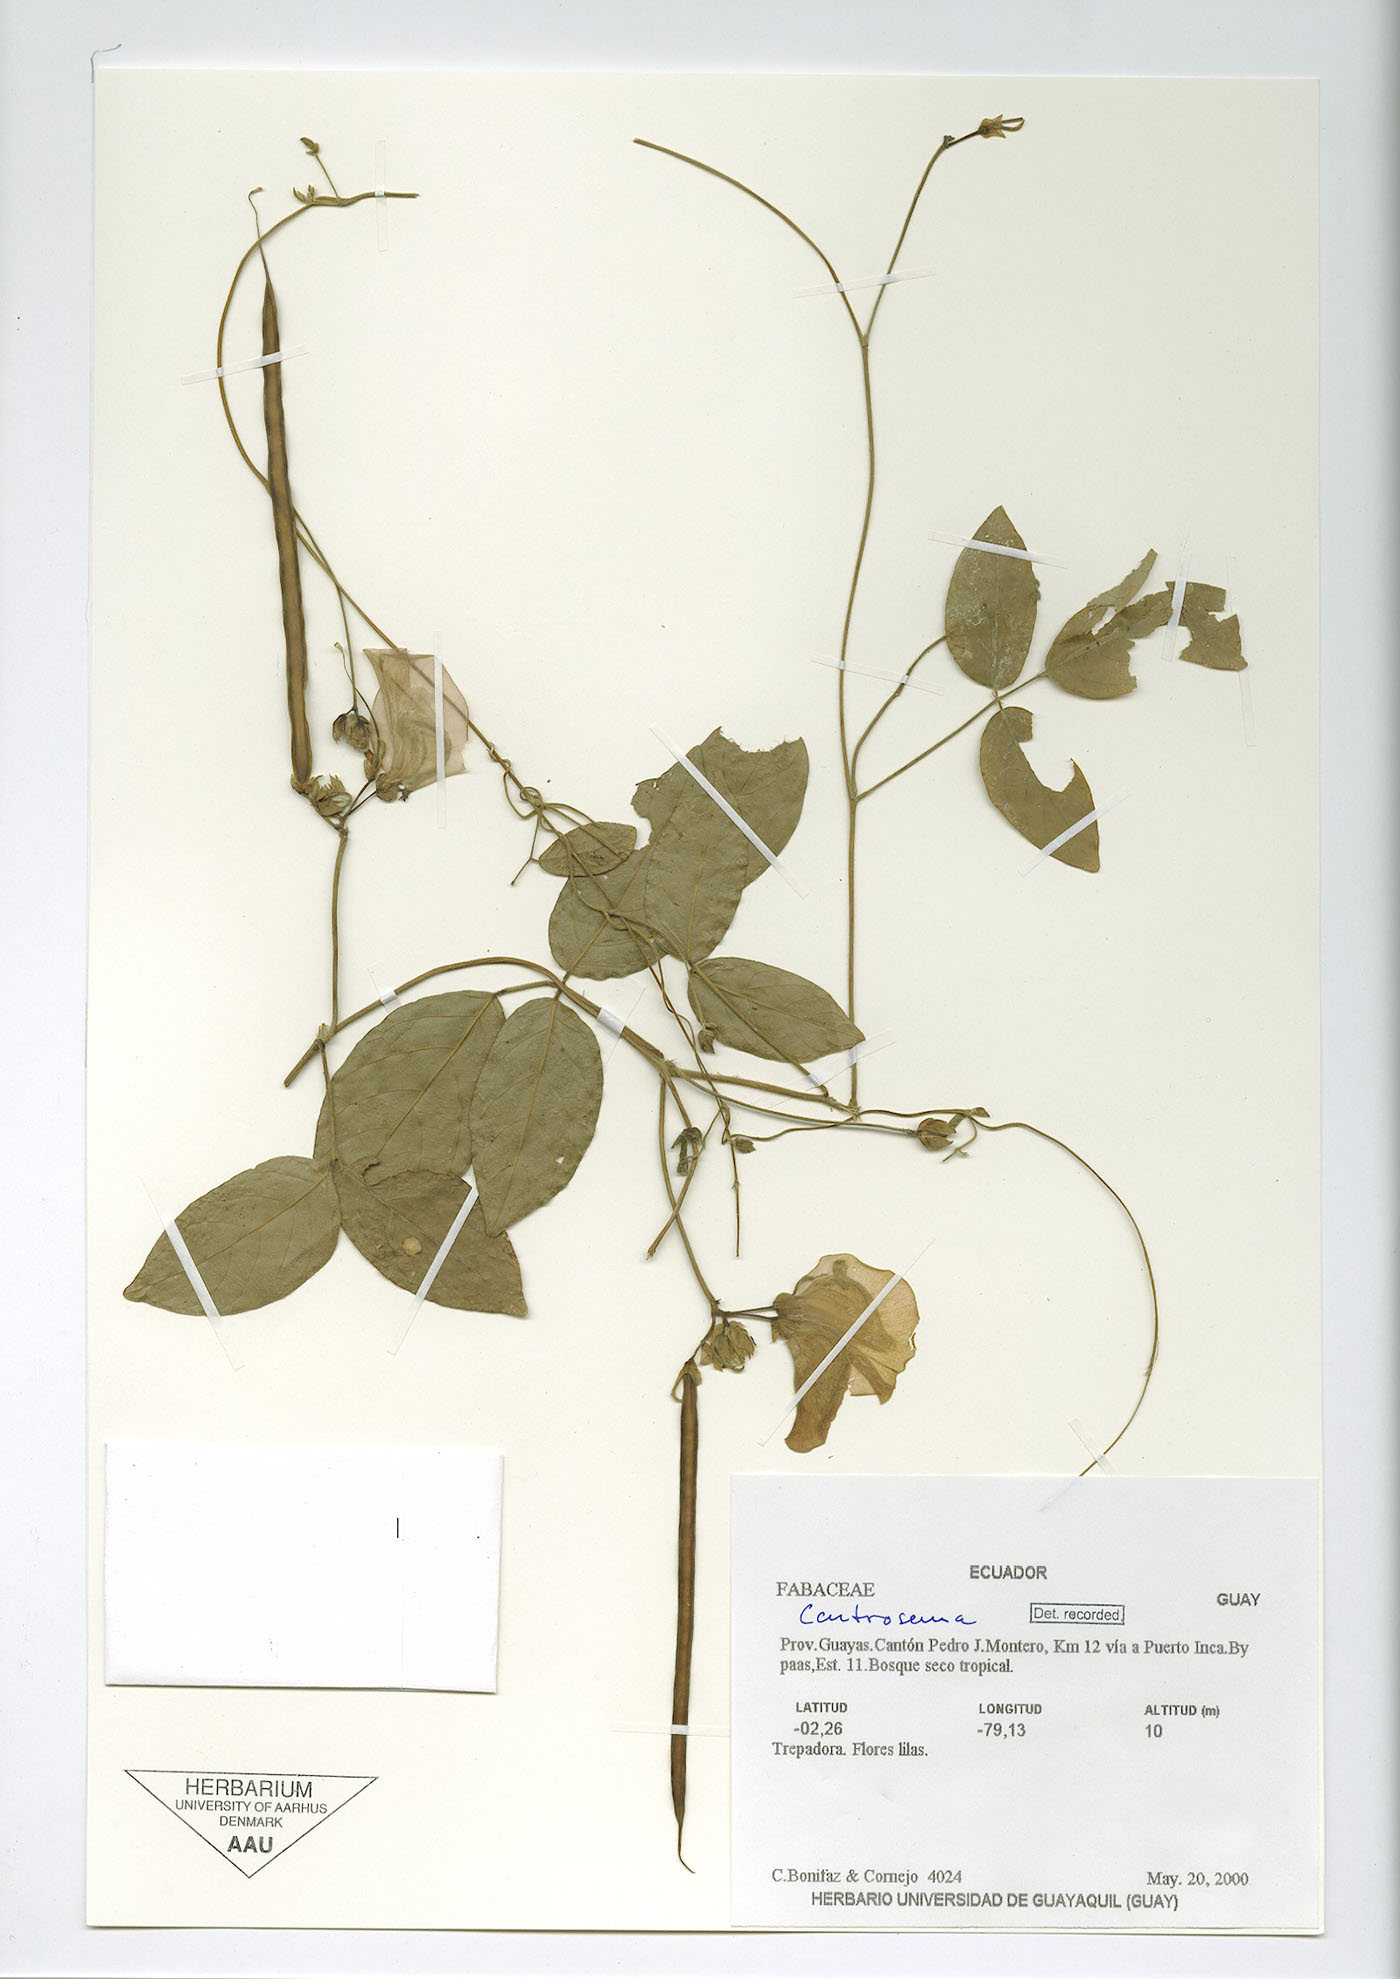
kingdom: Plantae
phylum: Tracheophyta
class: Magnoliopsida
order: Fabales
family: Fabaceae
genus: Centrosema
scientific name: Centrosema molle
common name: Soft butterfly pea
